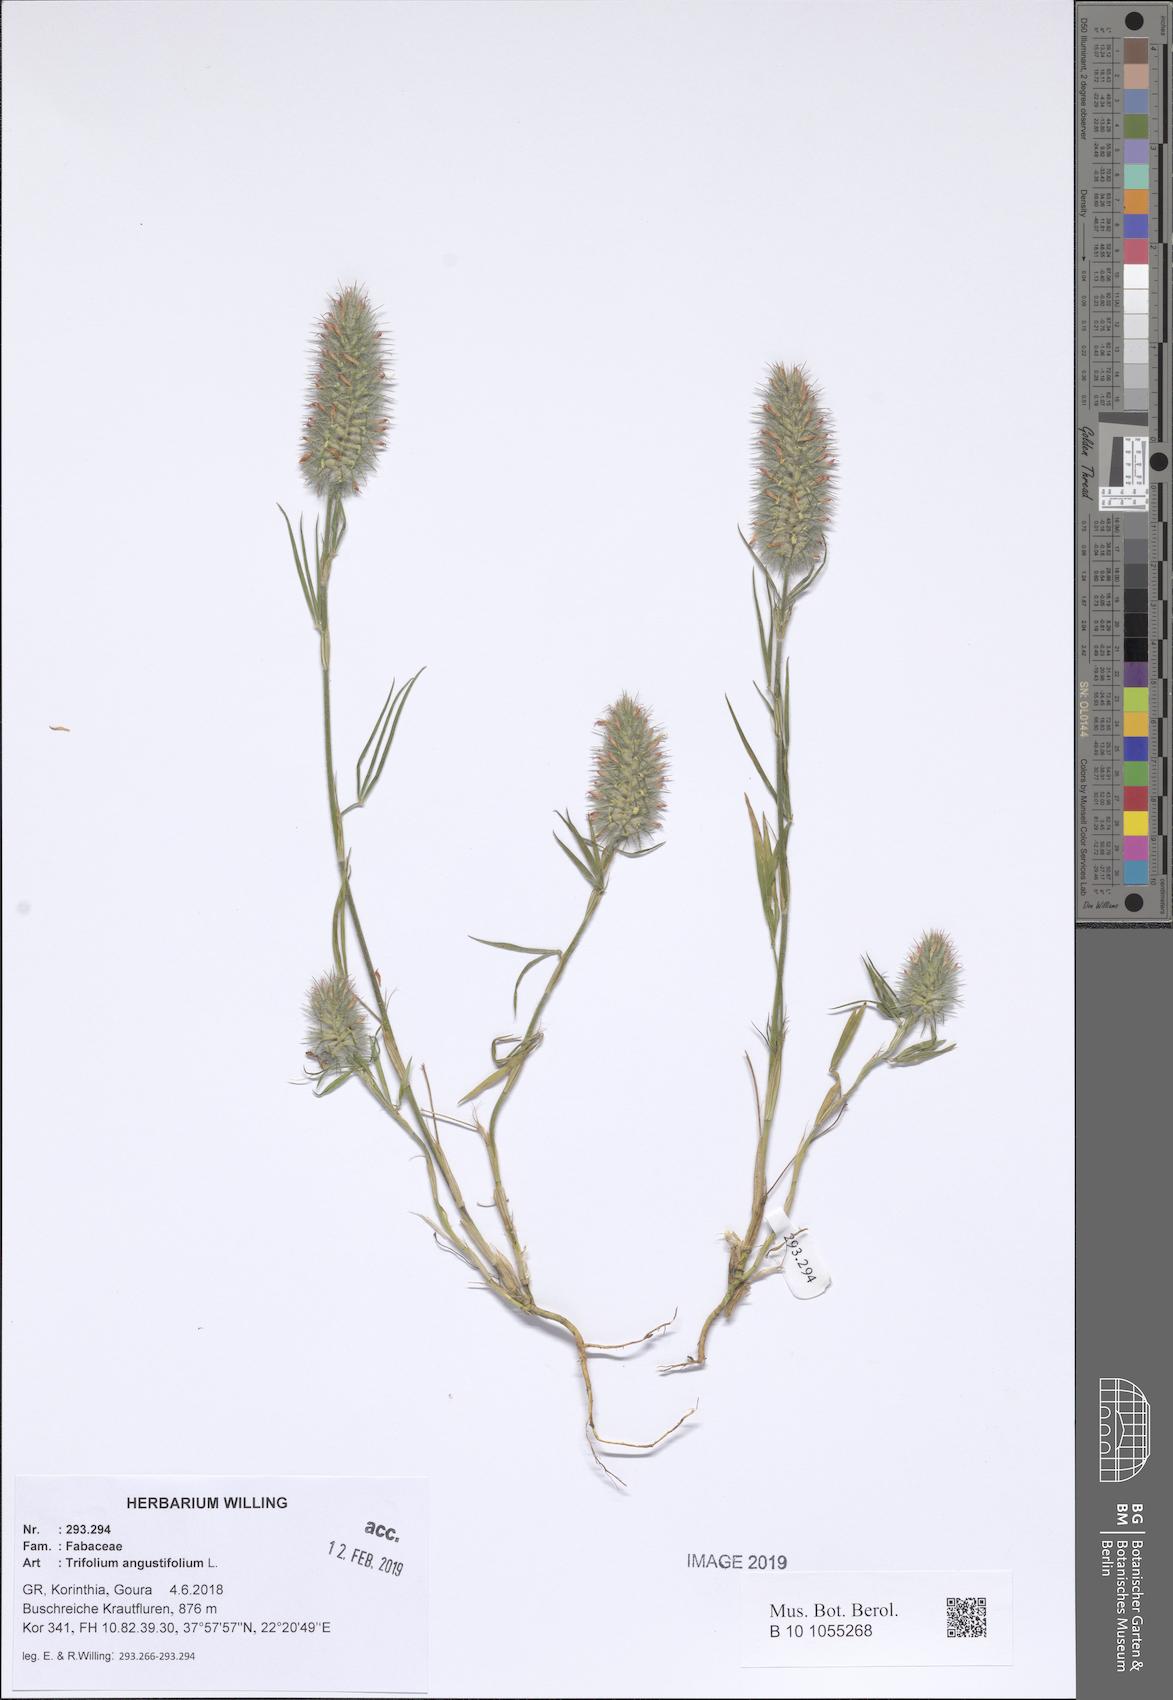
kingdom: Plantae
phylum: Tracheophyta
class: Magnoliopsida
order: Fabales
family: Fabaceae
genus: Trifolium
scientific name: Trifolium angustifolium
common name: Narrow clover
